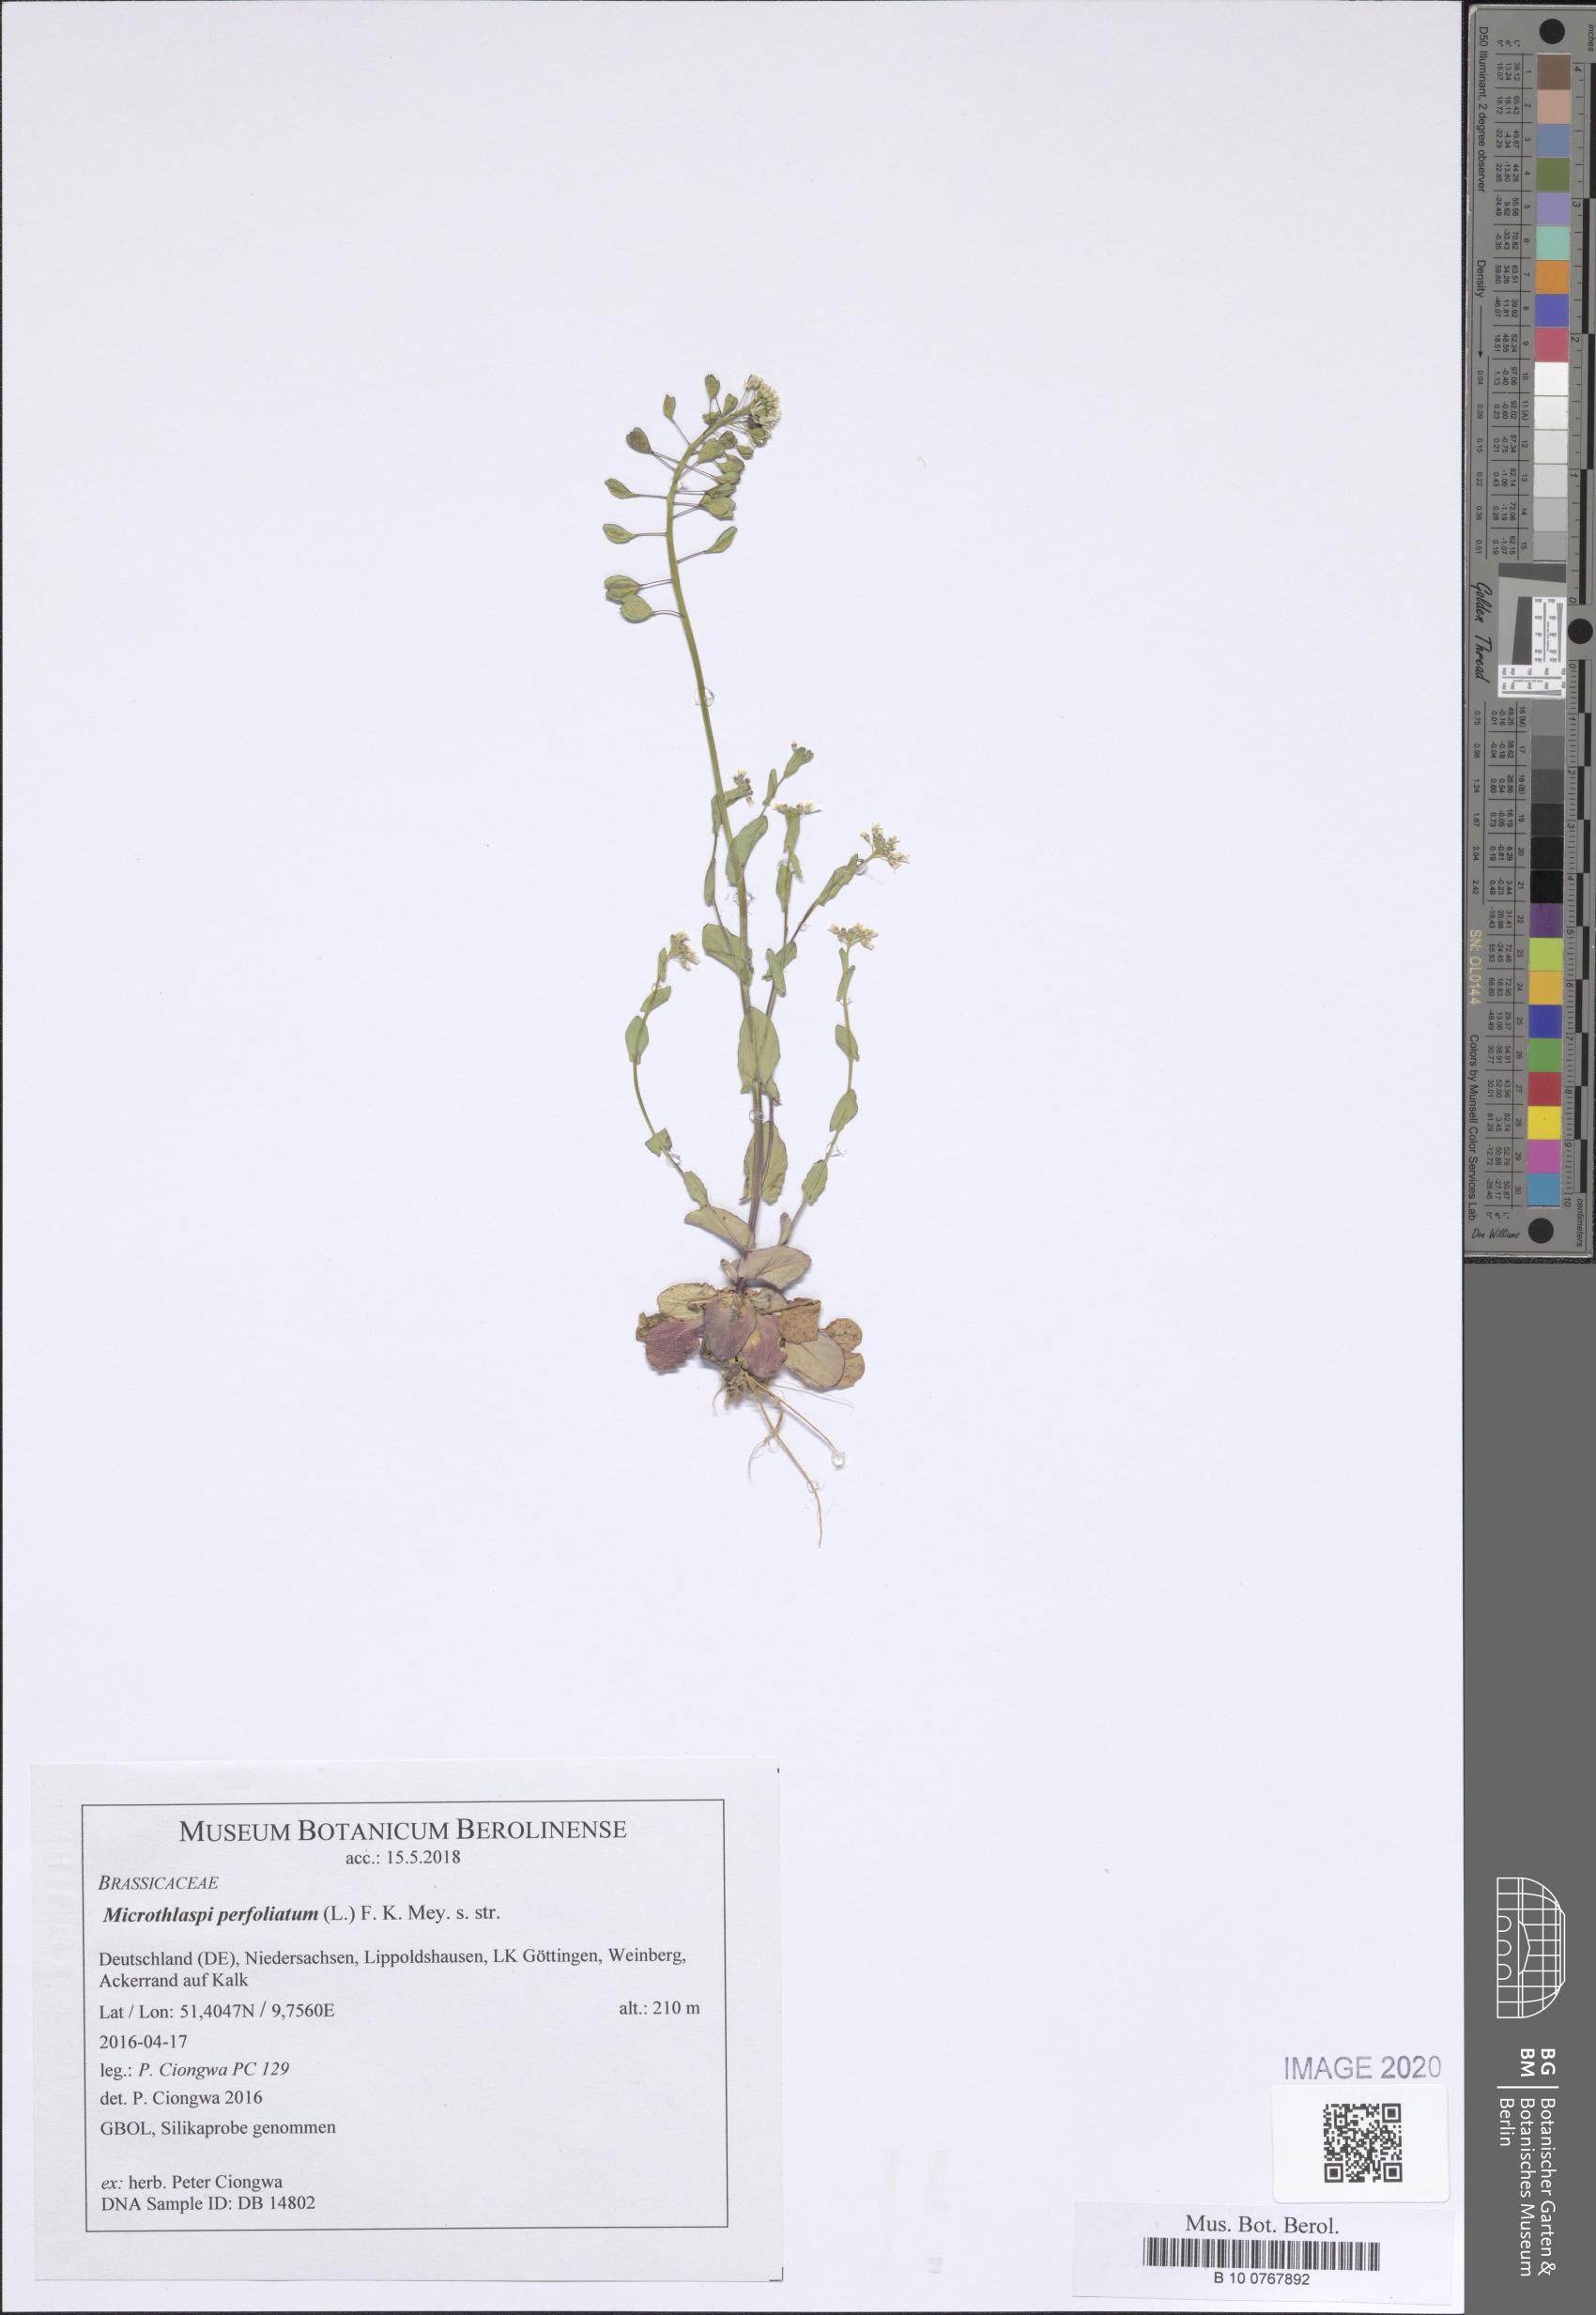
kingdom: Plantae
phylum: Tracheophyta
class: Magnoliopsida
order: Brassicales
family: Brassicaceae
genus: Noccaea
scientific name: Noccaea perfoliata
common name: Perfoliate pennycress
